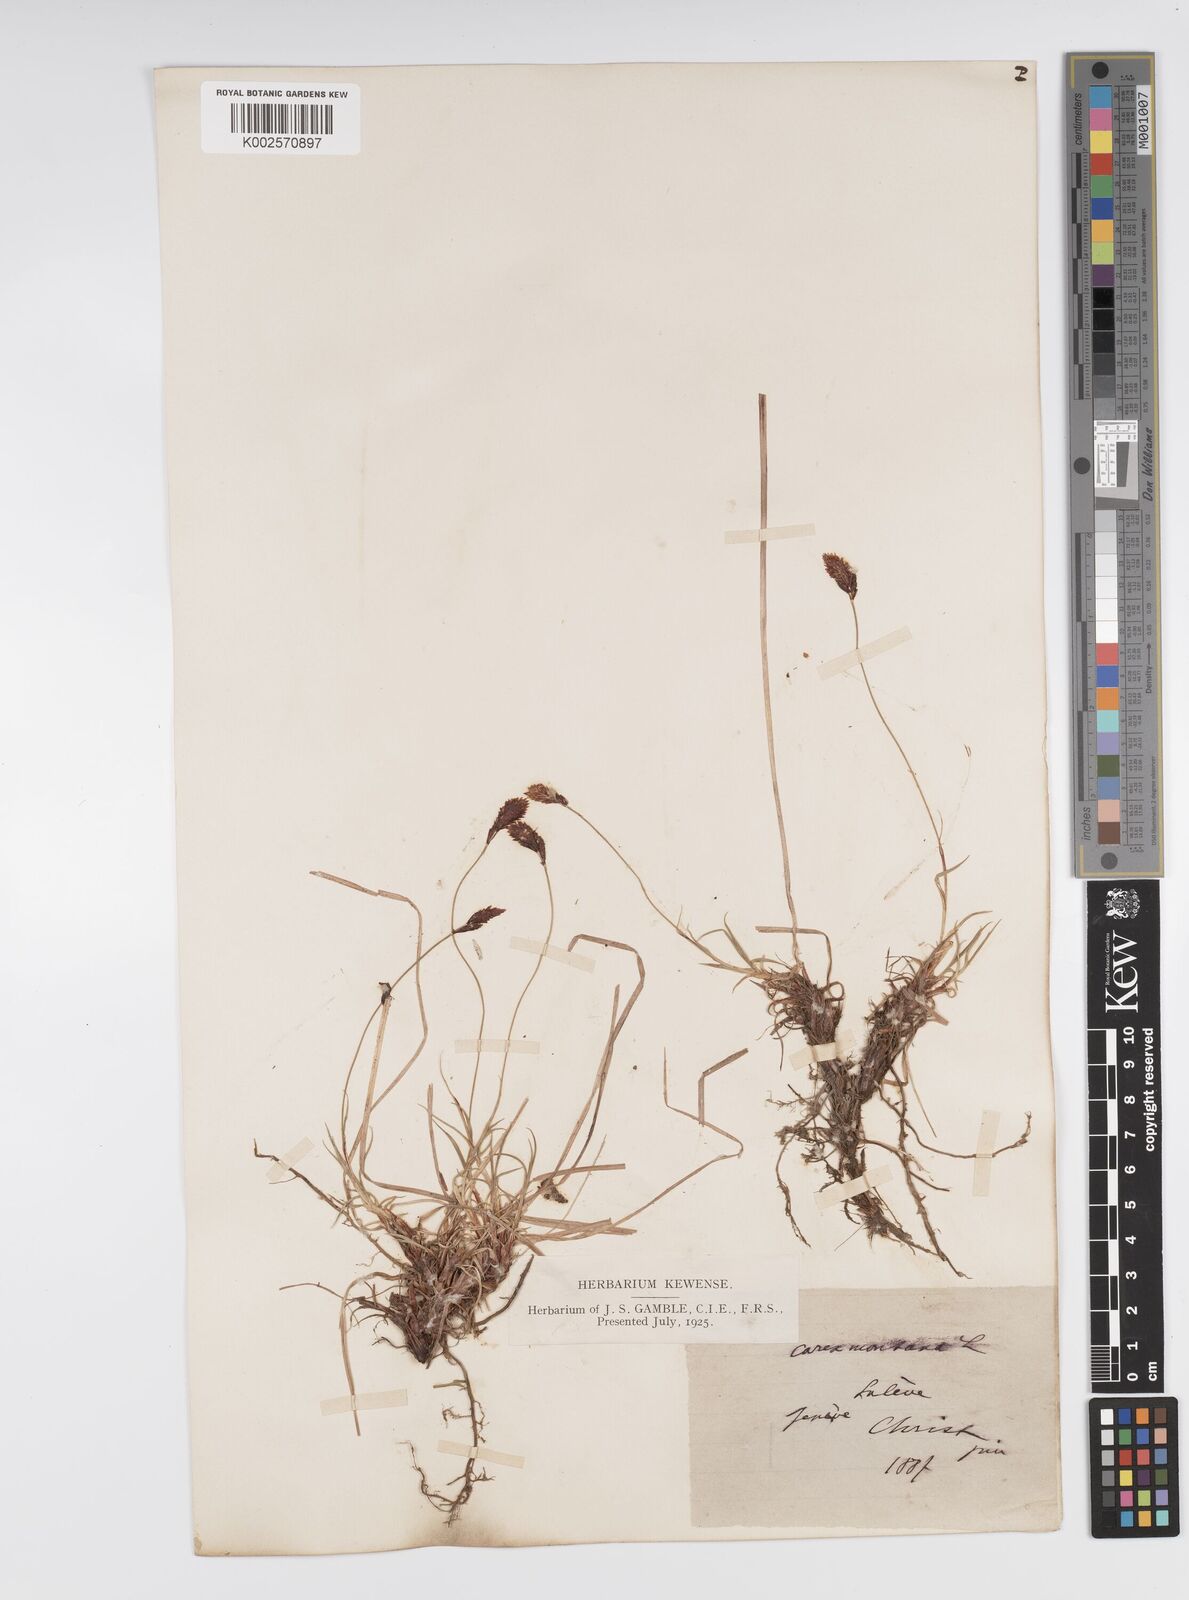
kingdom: Plantae
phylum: Tracheophyta
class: Liliopsida
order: Poales
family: Cyperaceae
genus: Carex
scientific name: Carex montana
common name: Soft-leaved sedge
